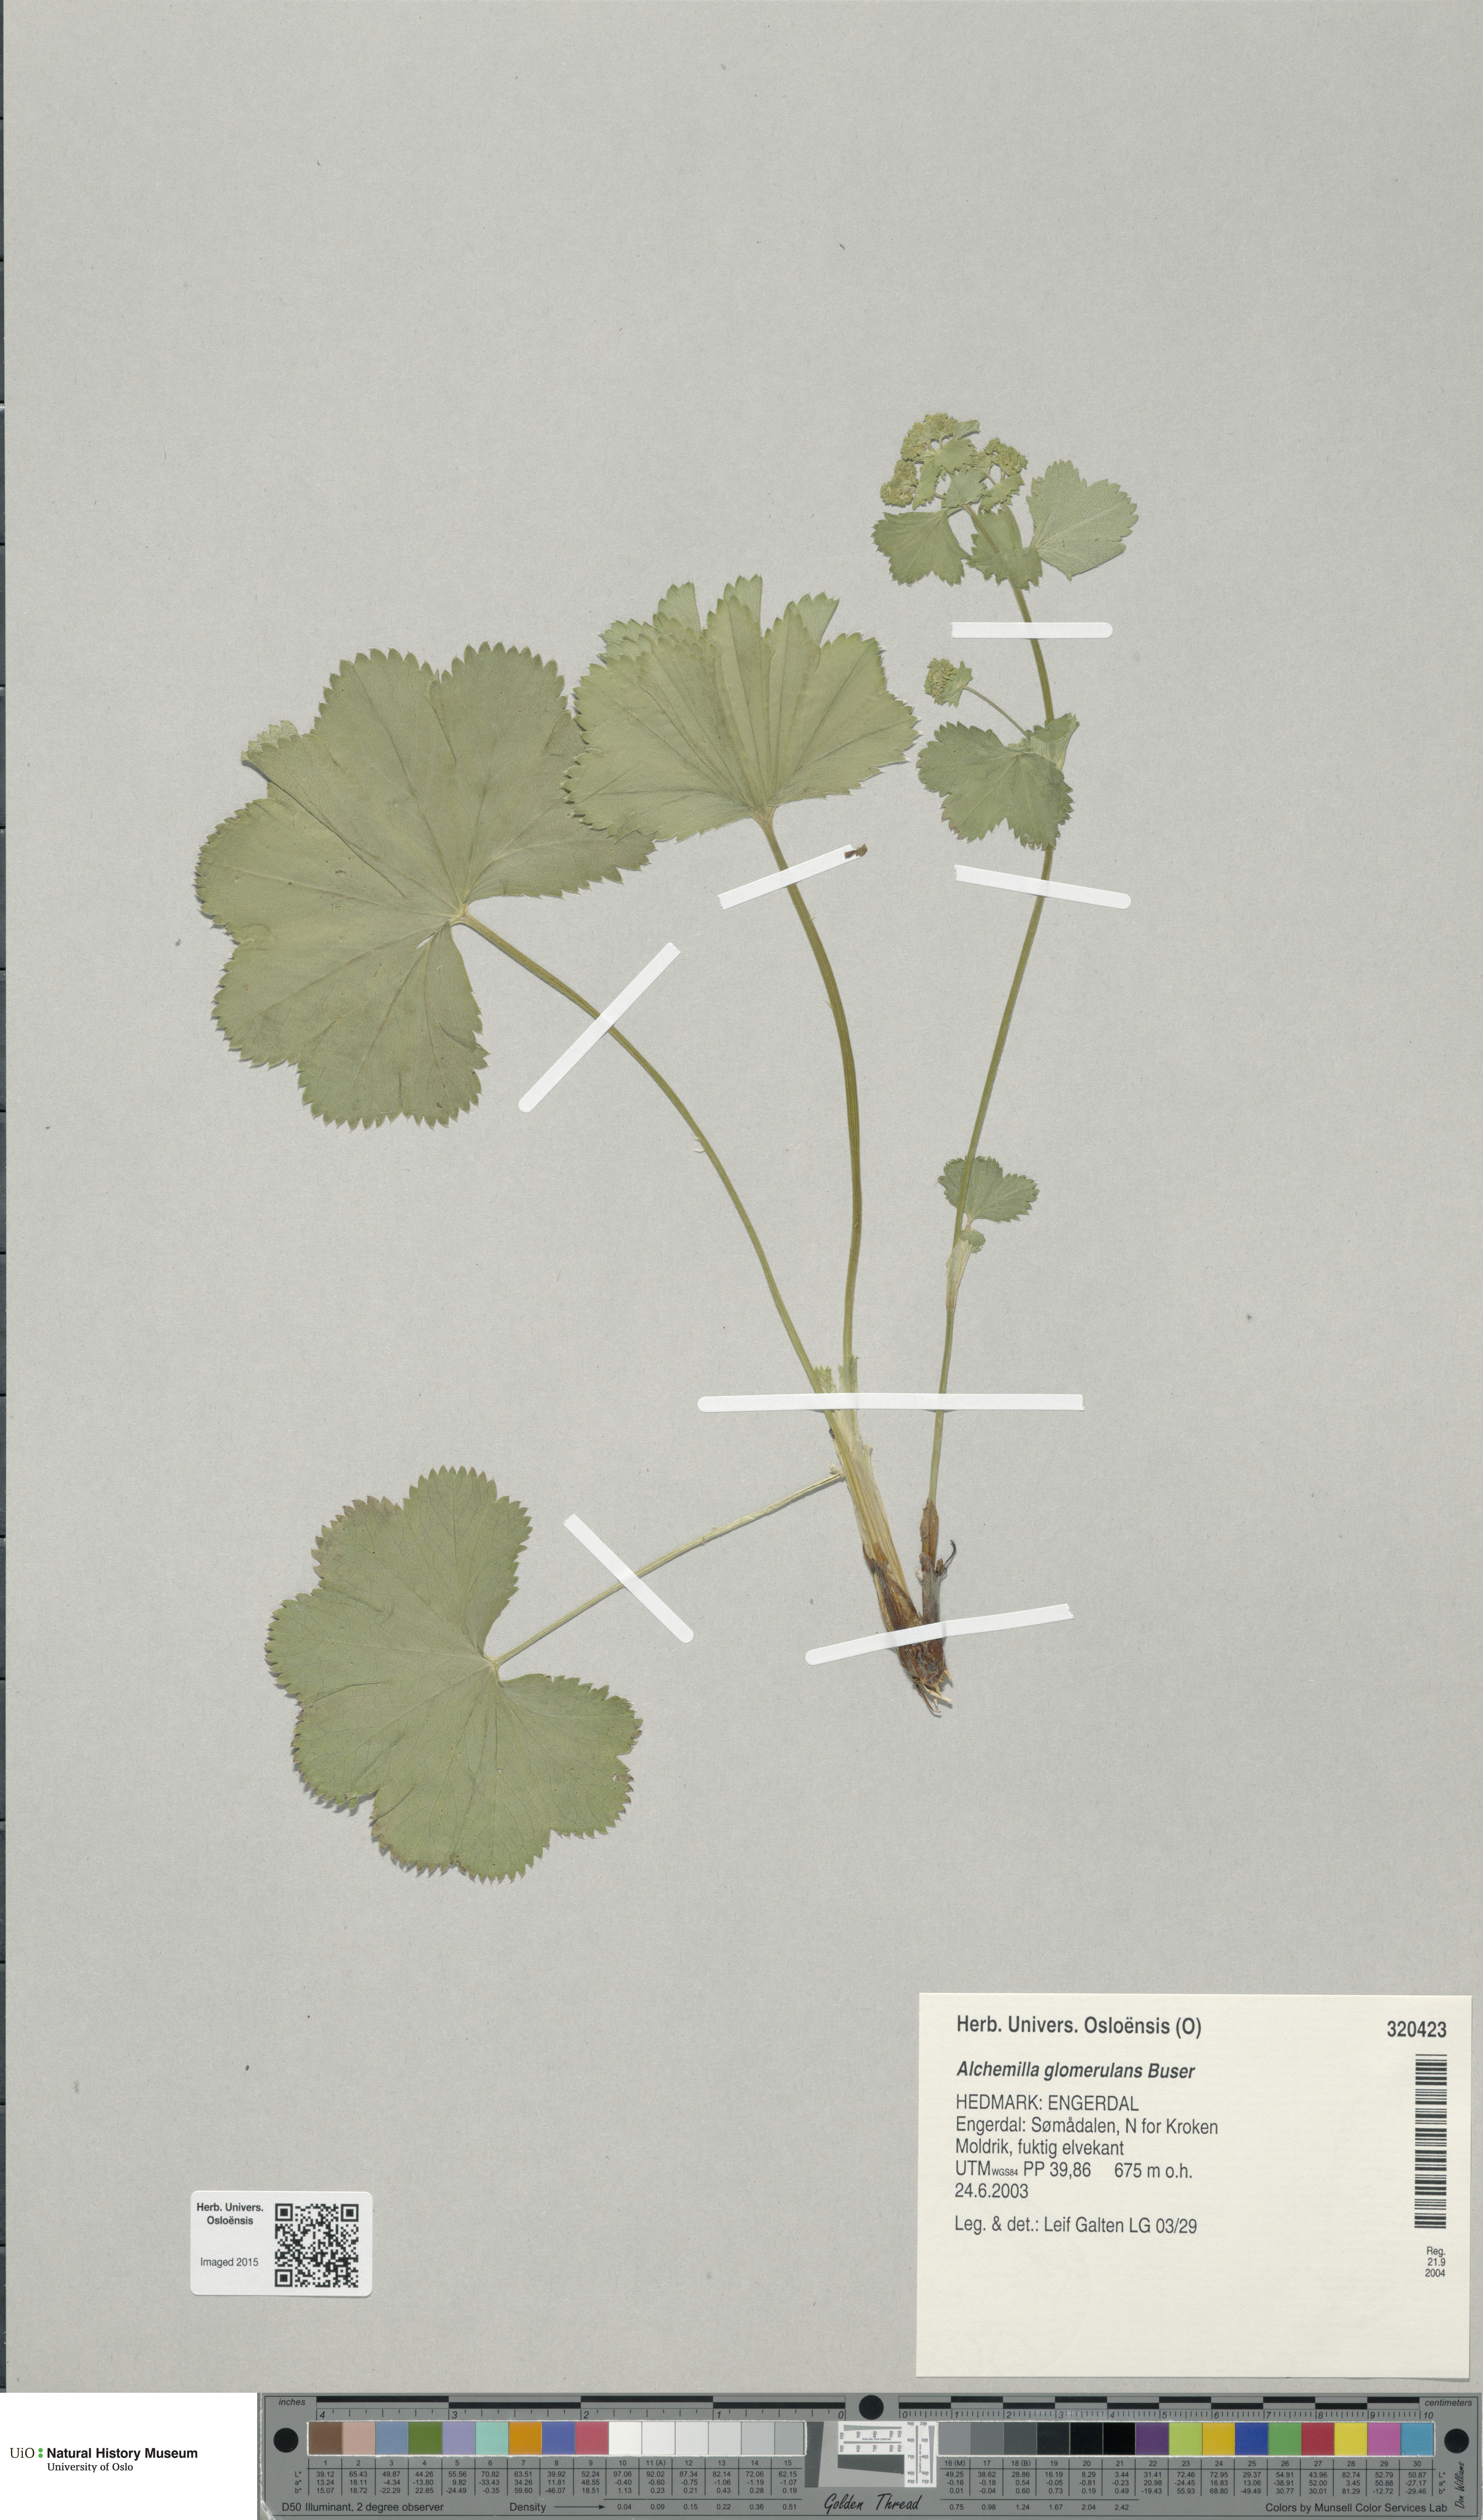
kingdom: Plantae
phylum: Tracheophyta
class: Magnoliopsida
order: Rosales
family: Rosaceae
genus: Alchemilla
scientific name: Alchemilla glomerulans
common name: Clustered lady's mantle
